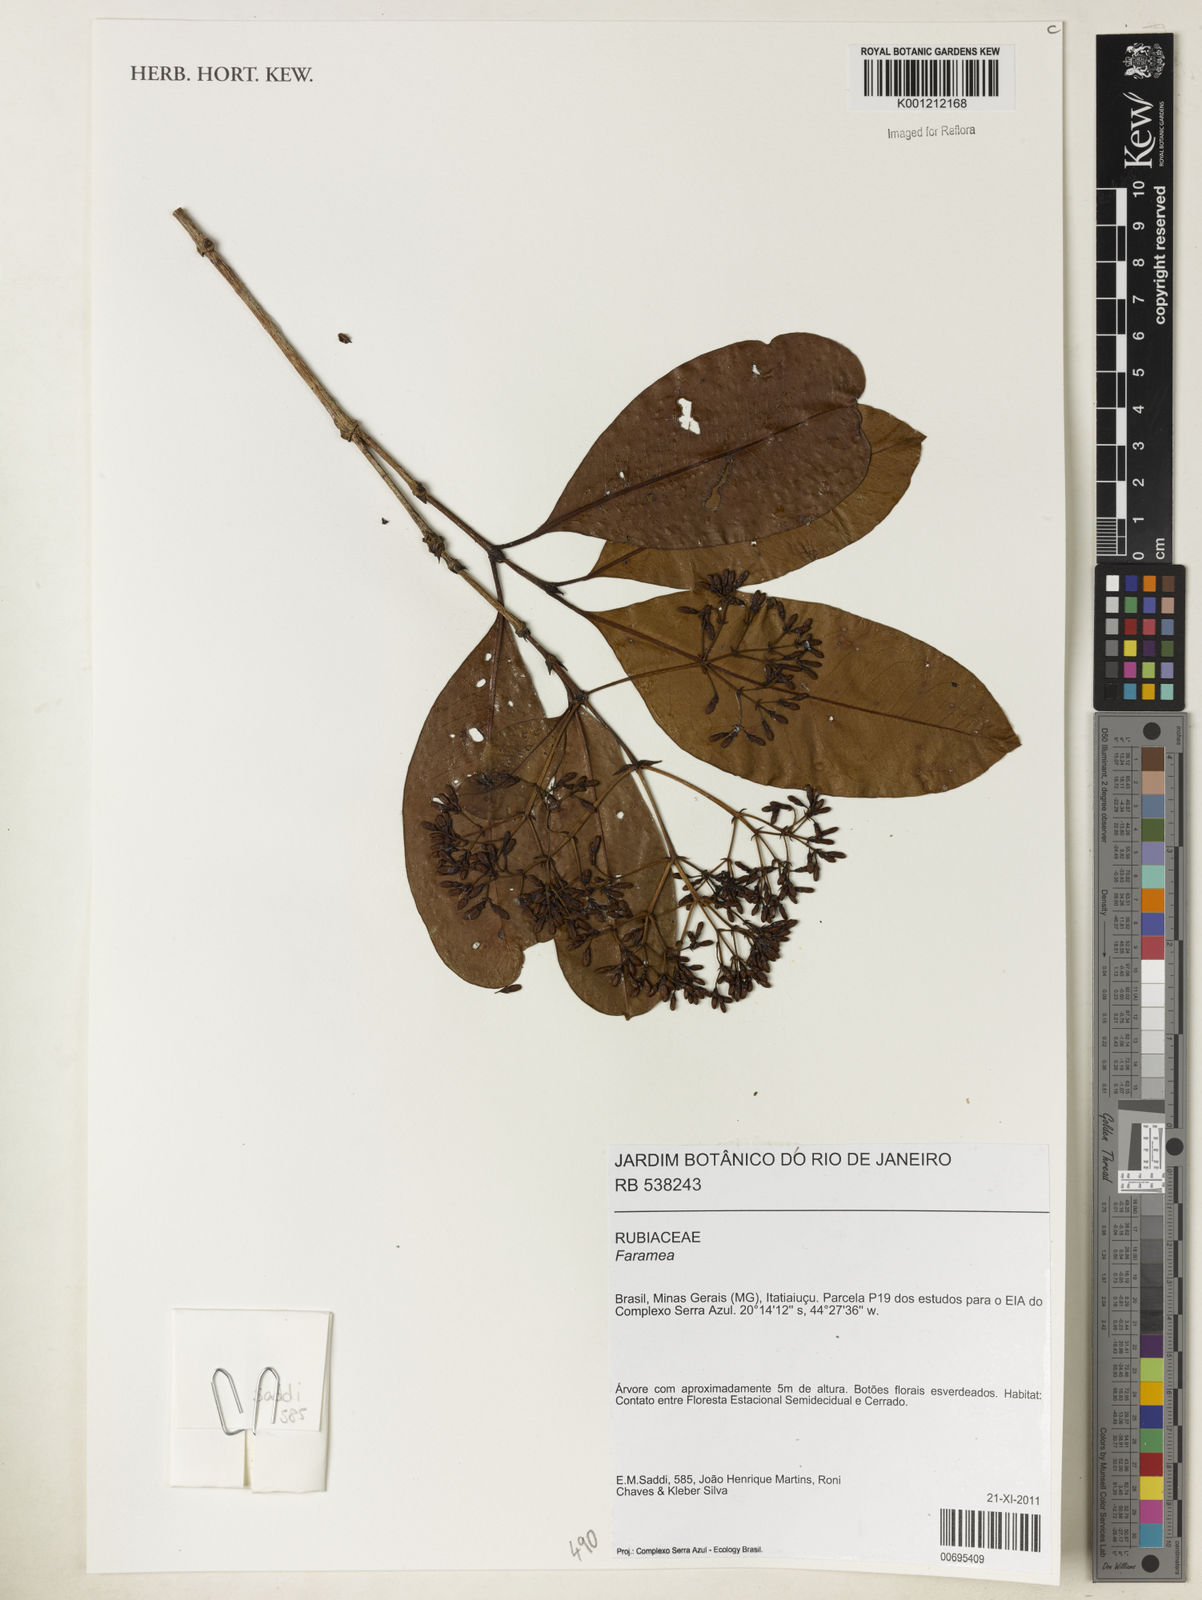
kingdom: Plantae
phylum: Tracheophyta
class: Magnoliopsida
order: Gentianales
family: Rubiaceae
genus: Faramea
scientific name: Faramea
